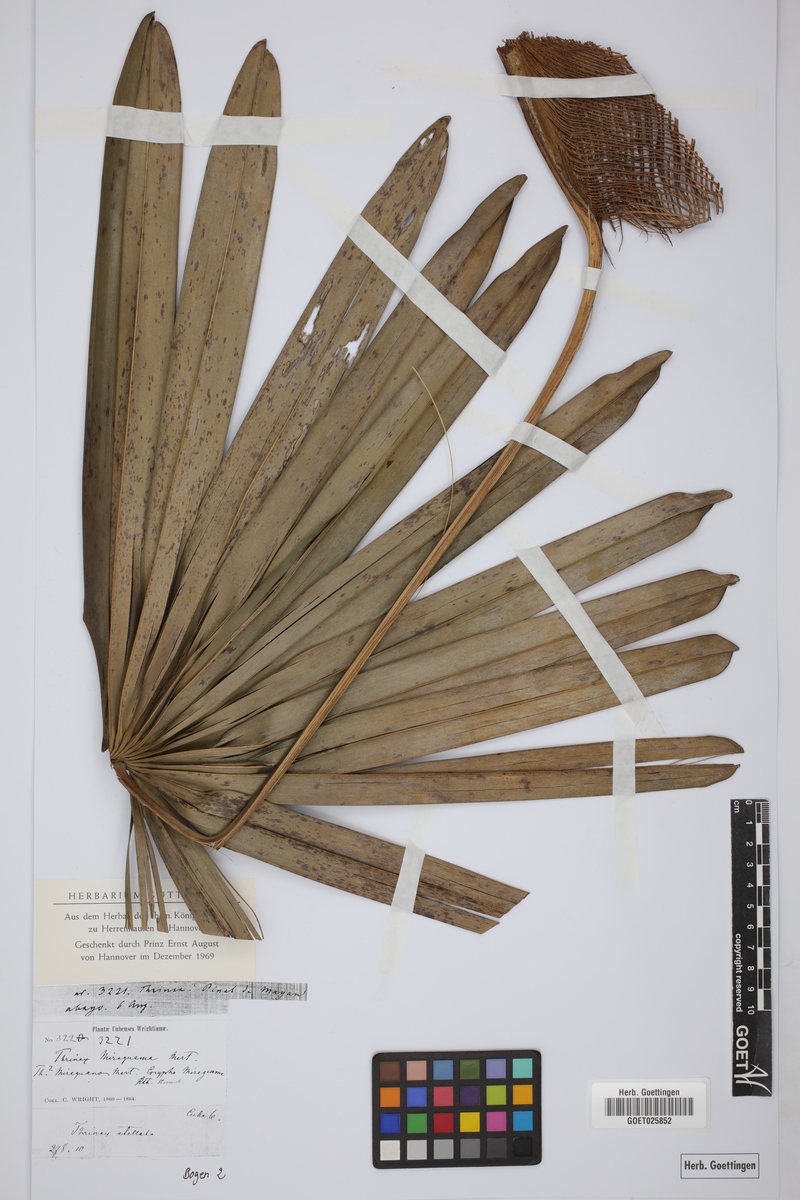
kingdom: Plantae
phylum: Tracheophyta
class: Liliopsida
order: Arecales
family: Arecaceae
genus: Coccothrinax
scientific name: Coccothrinax miraguama
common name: Miragua palm
